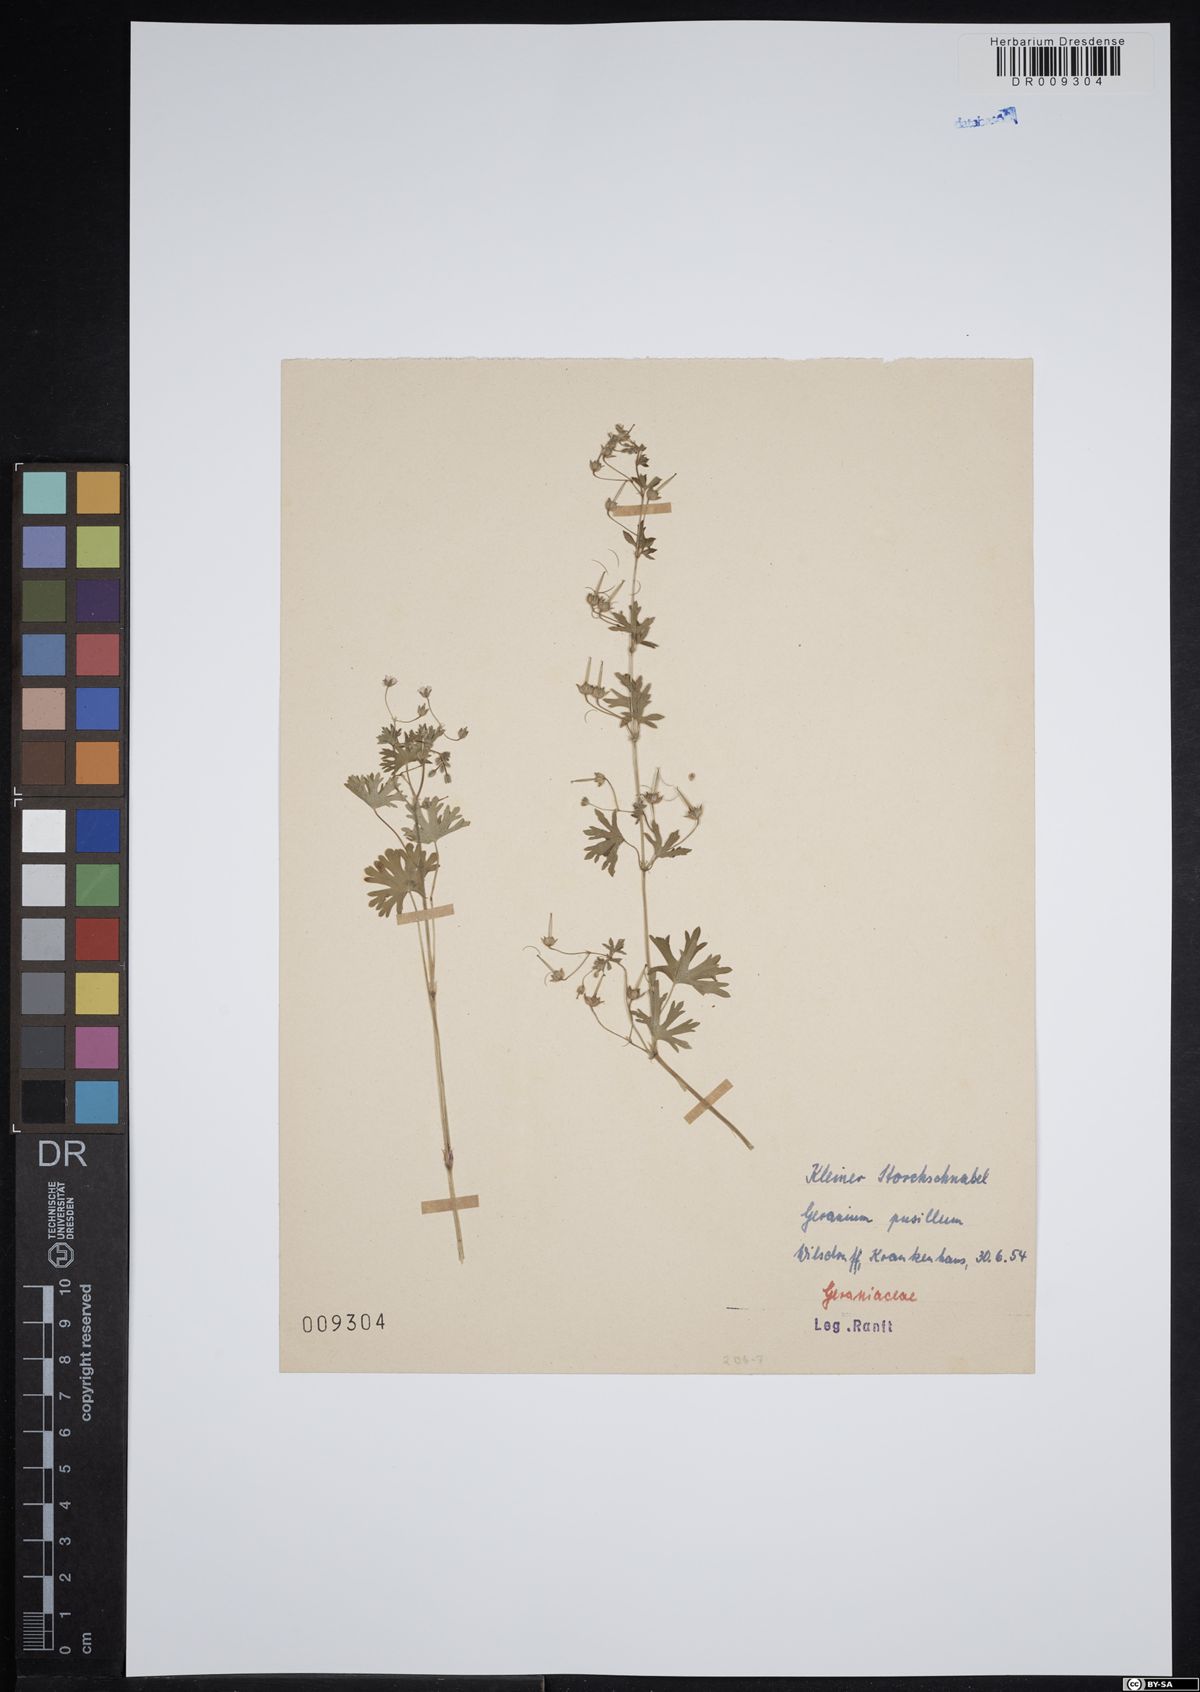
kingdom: Plantae
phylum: Tracheophyta
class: Magnoliopsida
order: Geraniales
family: Geraniaceae
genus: Geranium
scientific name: Geranium pusillum
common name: Small geranium
